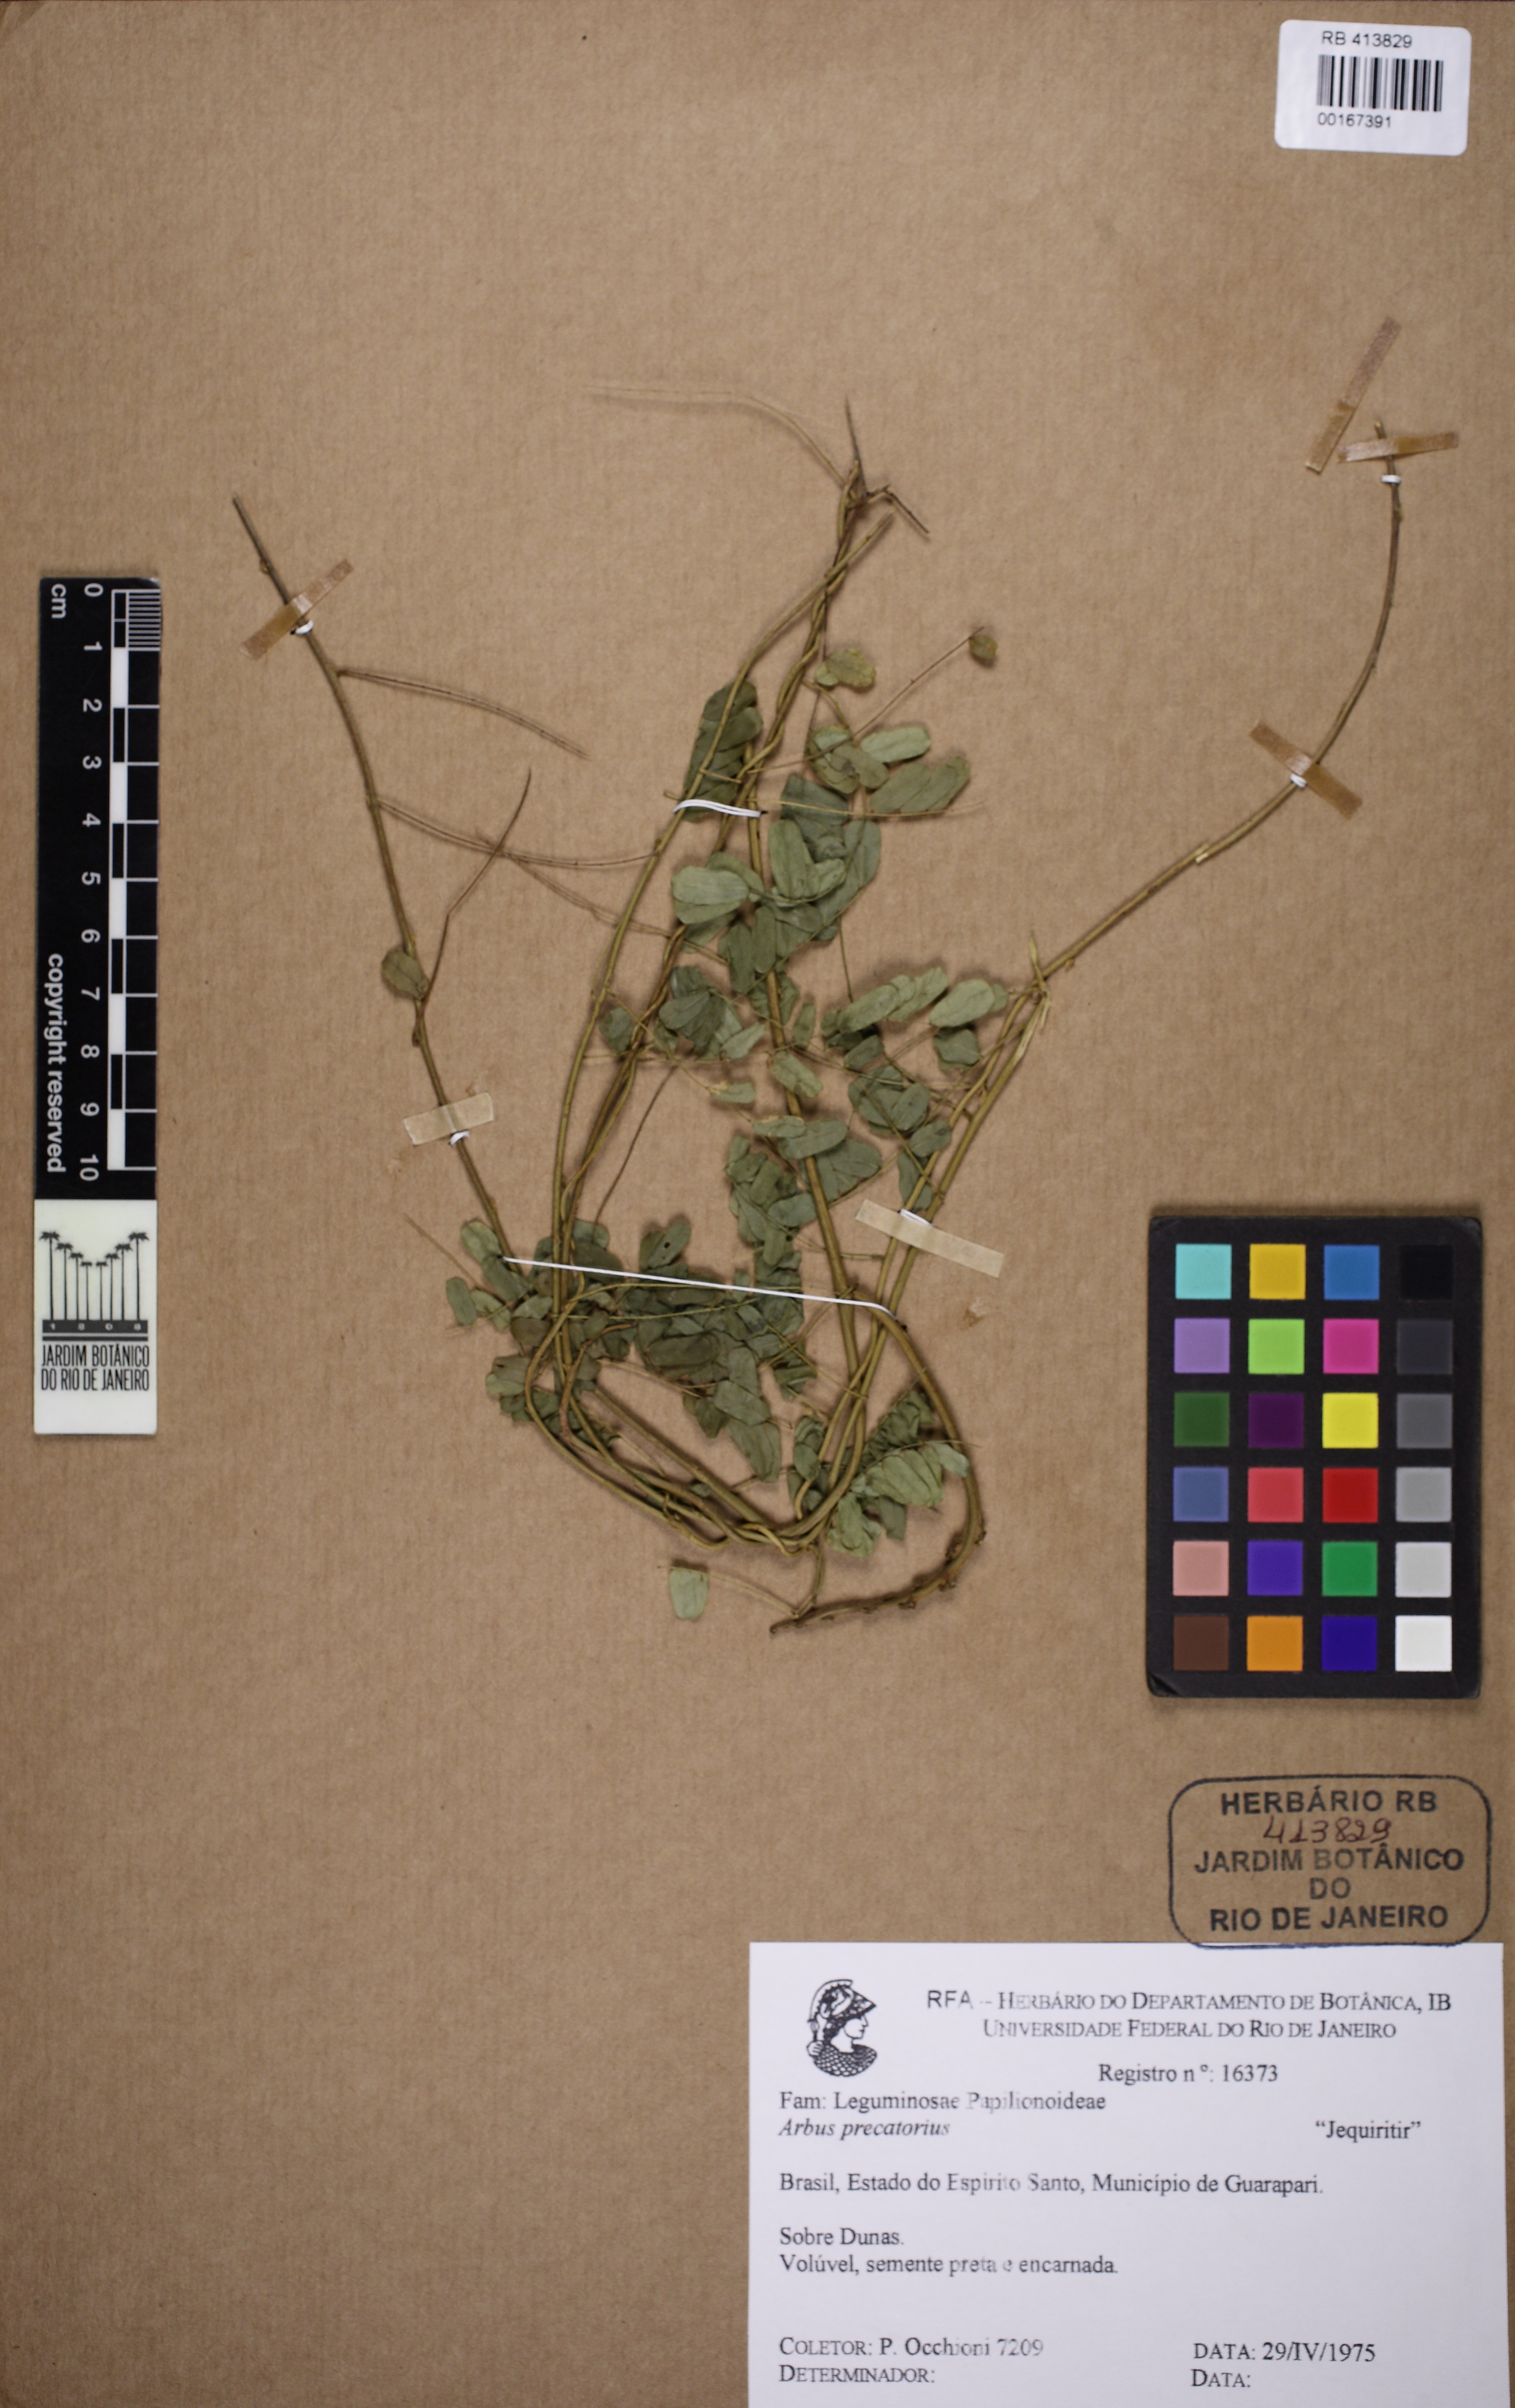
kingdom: Plantae
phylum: Tracheophyta
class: Magnoliopsida
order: Fabales
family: Fabaceae
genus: Abrus
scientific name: Abrus precatorius
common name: Rosarypea
